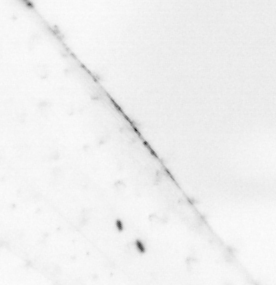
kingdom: Animalia
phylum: Chaetognatha
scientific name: Chaetognatha
